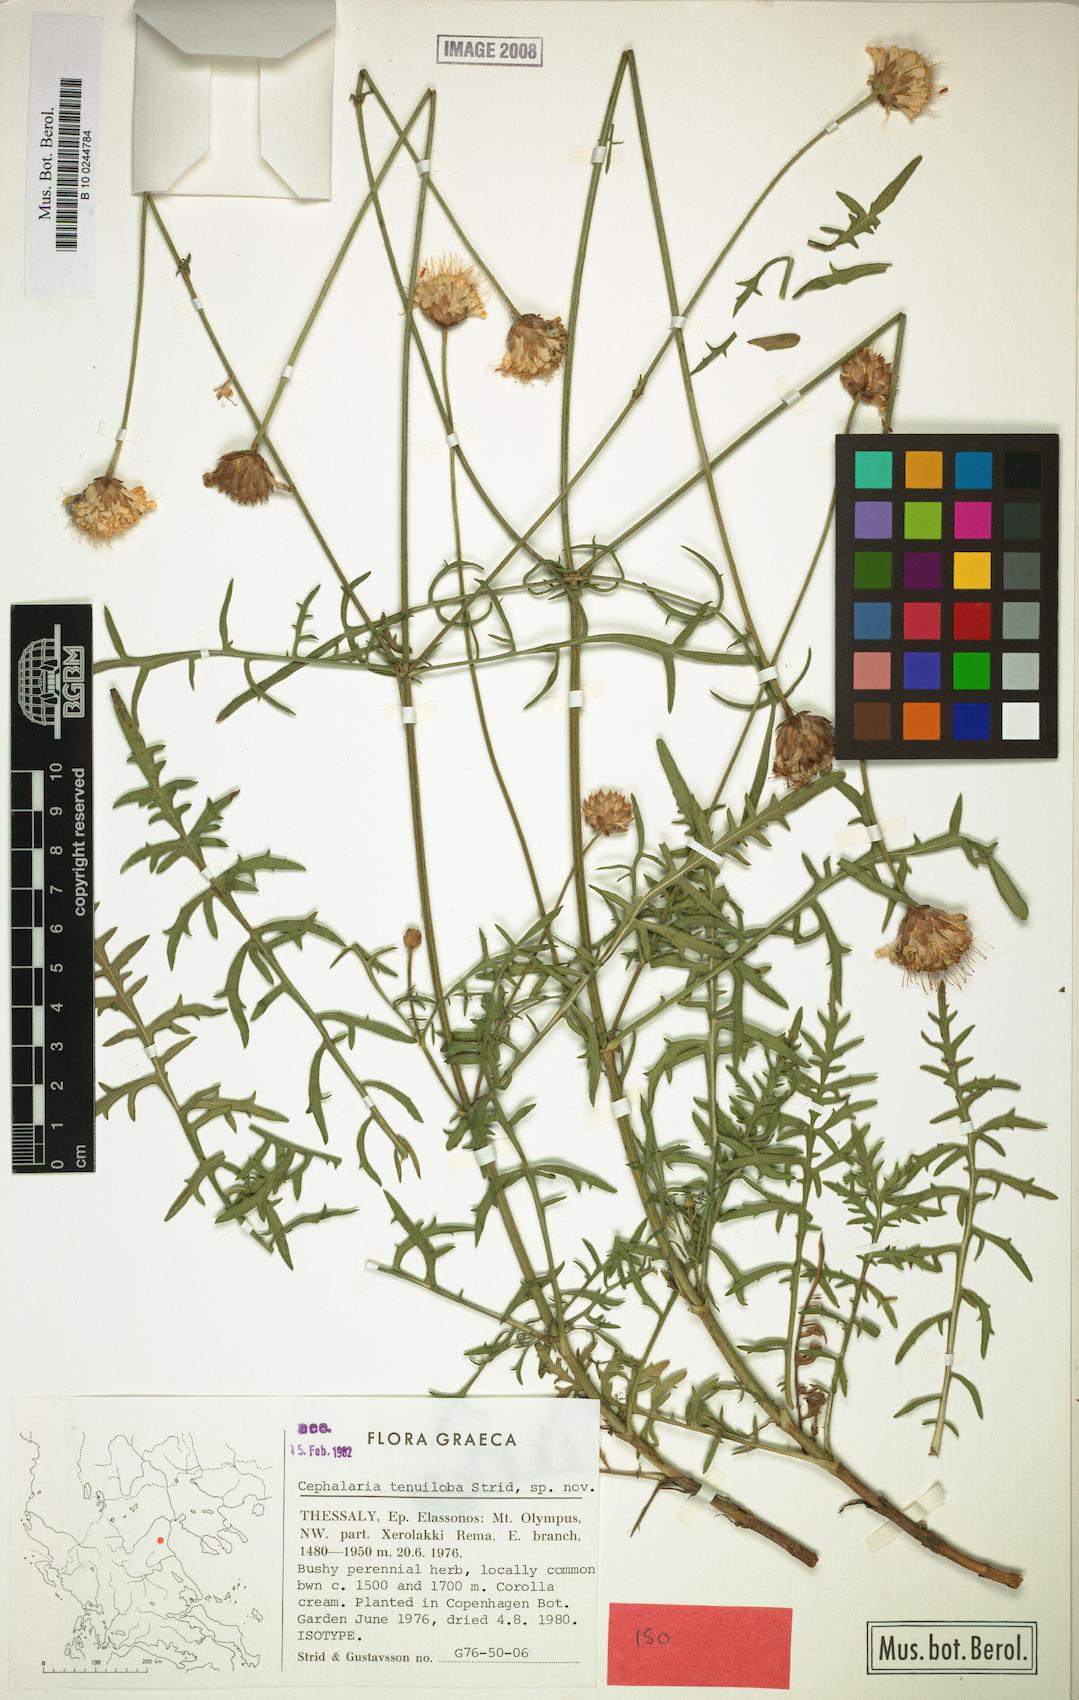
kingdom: Plantae
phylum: Tracheophyta
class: Magnoliopsida
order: Dipsacales
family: Caprifoliaceae
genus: Cephalaria
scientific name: Cephalaria tenuiloba
